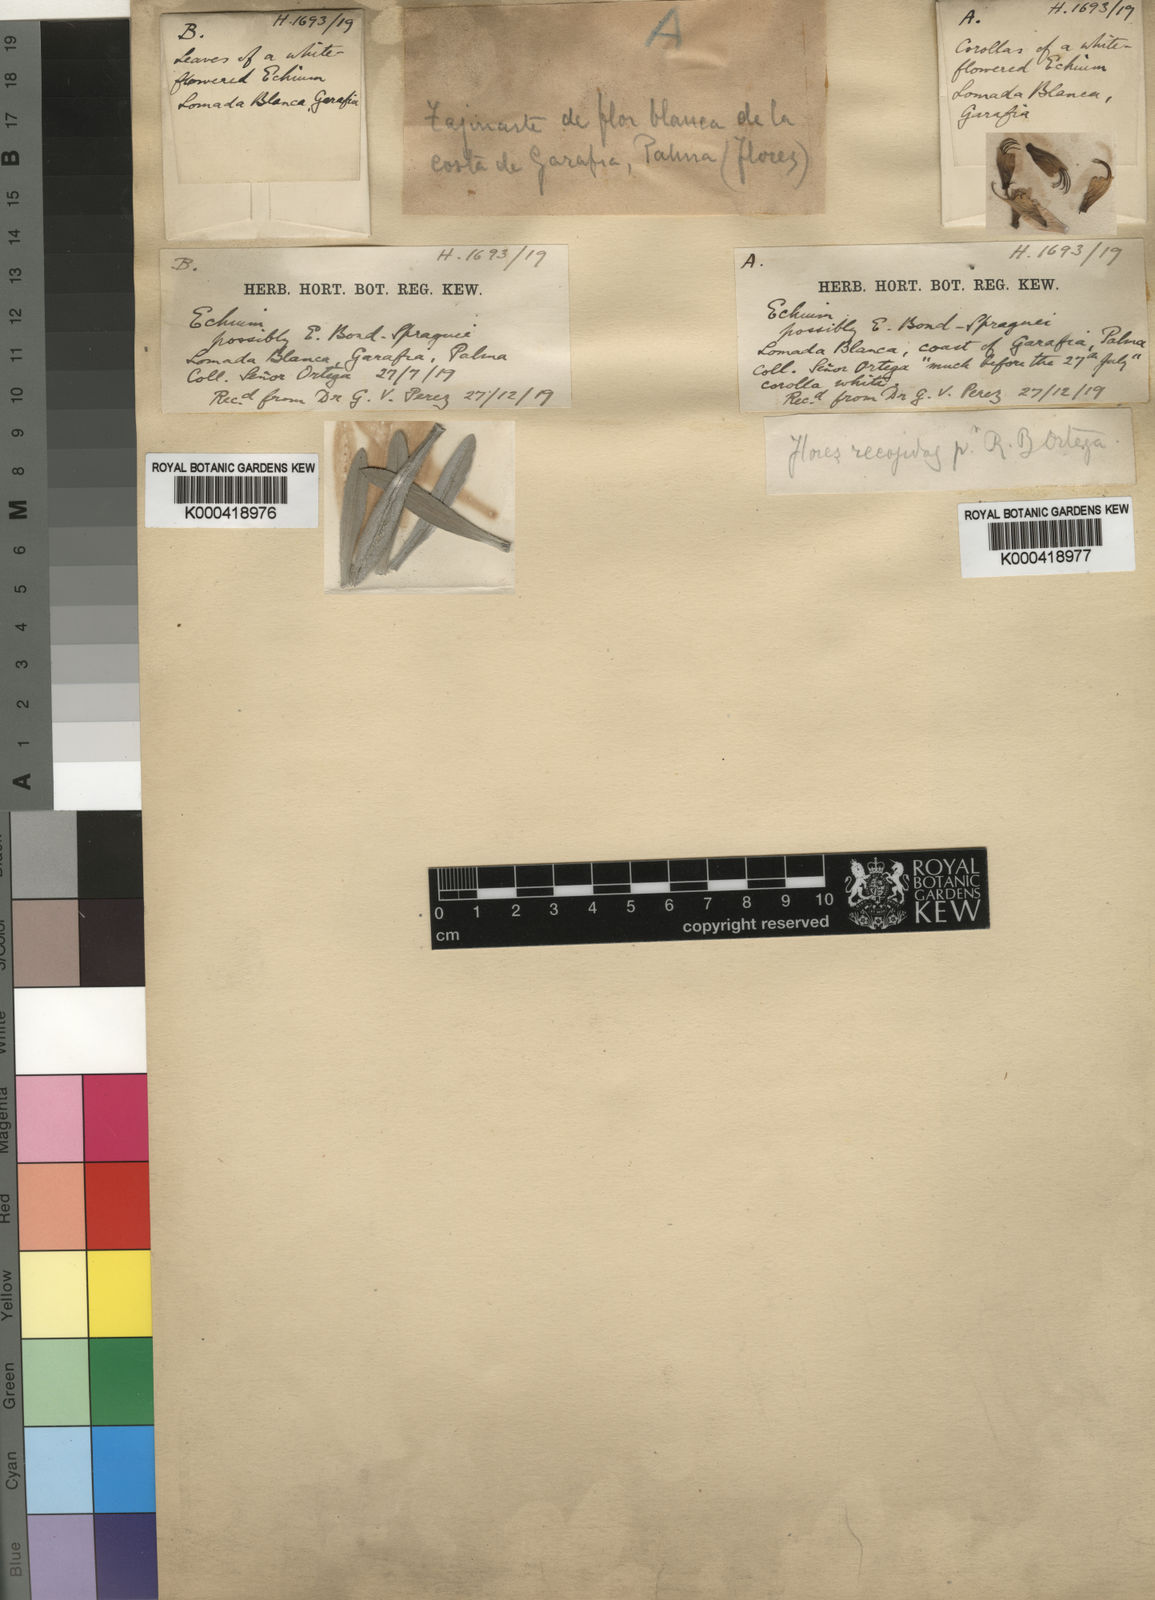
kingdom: Plantae
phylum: Tracheophyta
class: Magnoliopsida
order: Boraginales
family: Boraginaceae
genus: Echium
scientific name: Echium brevirame
